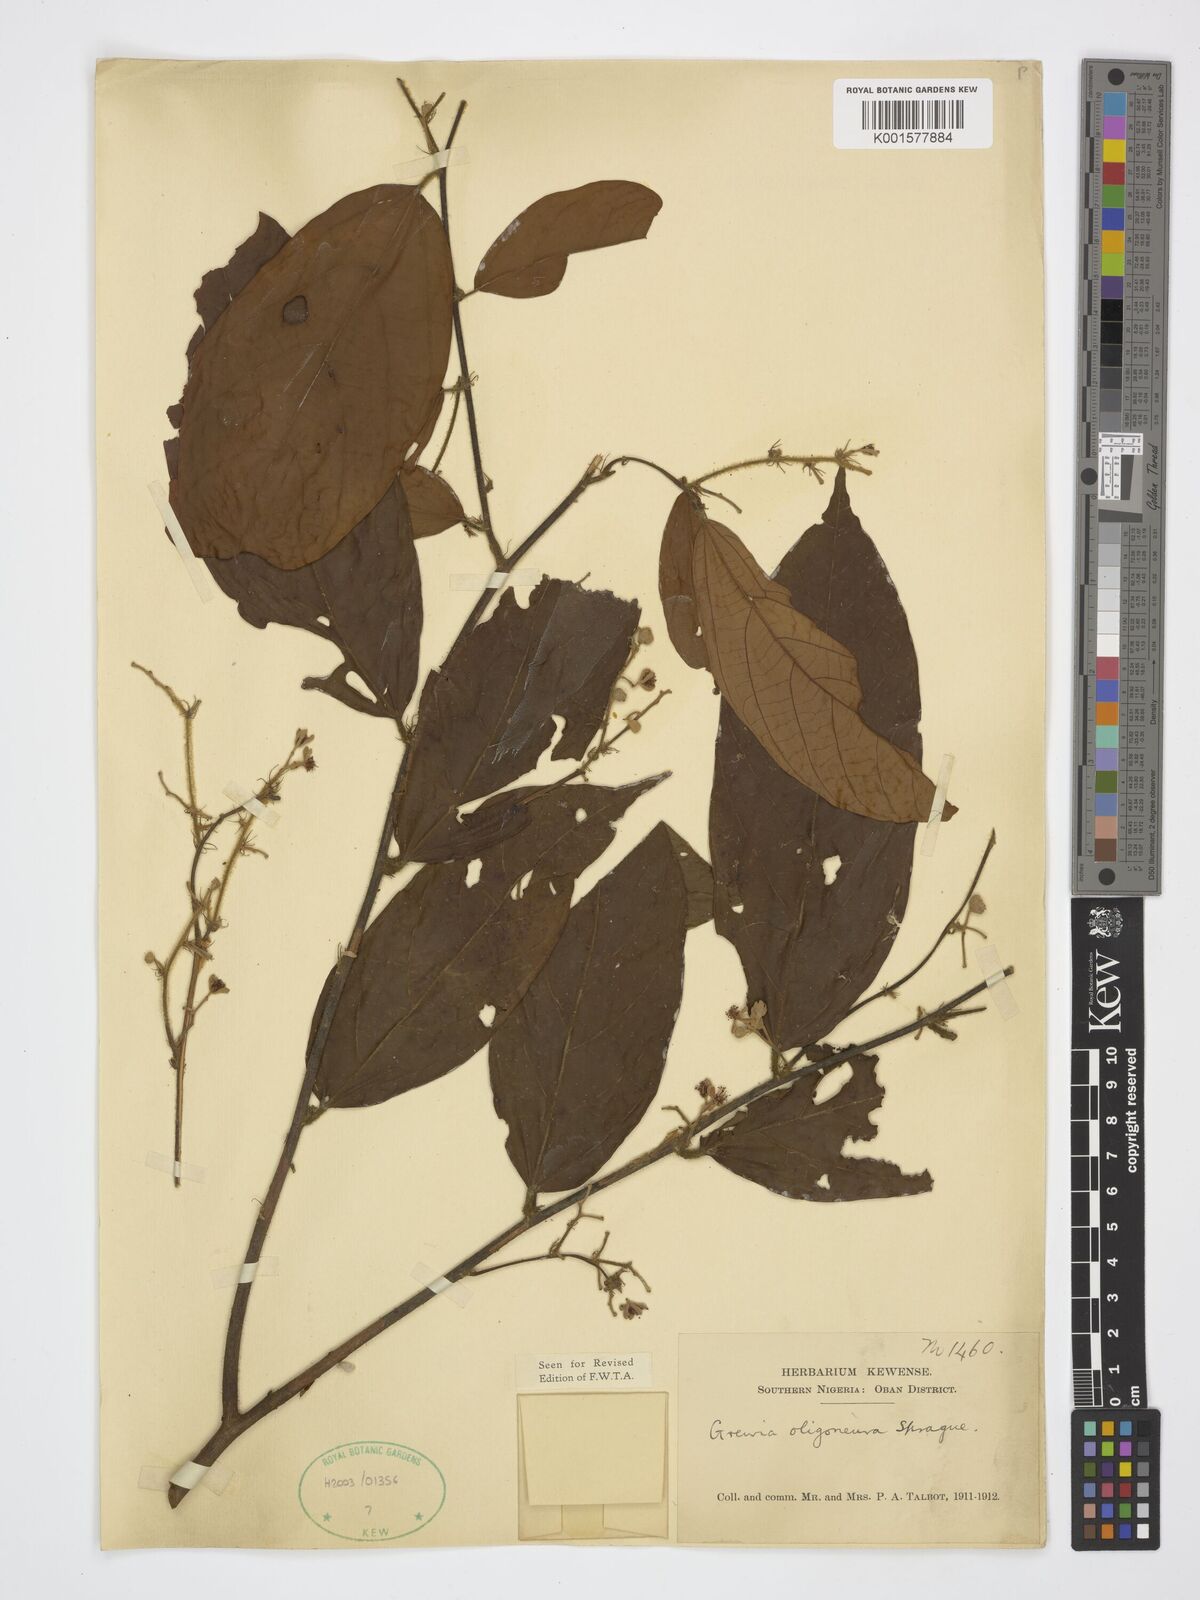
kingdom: Plantae
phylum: Tracheophyta
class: Magnoliopsida
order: Malvales
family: Malvaceae
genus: Microcos
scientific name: Microcos oligoneura
